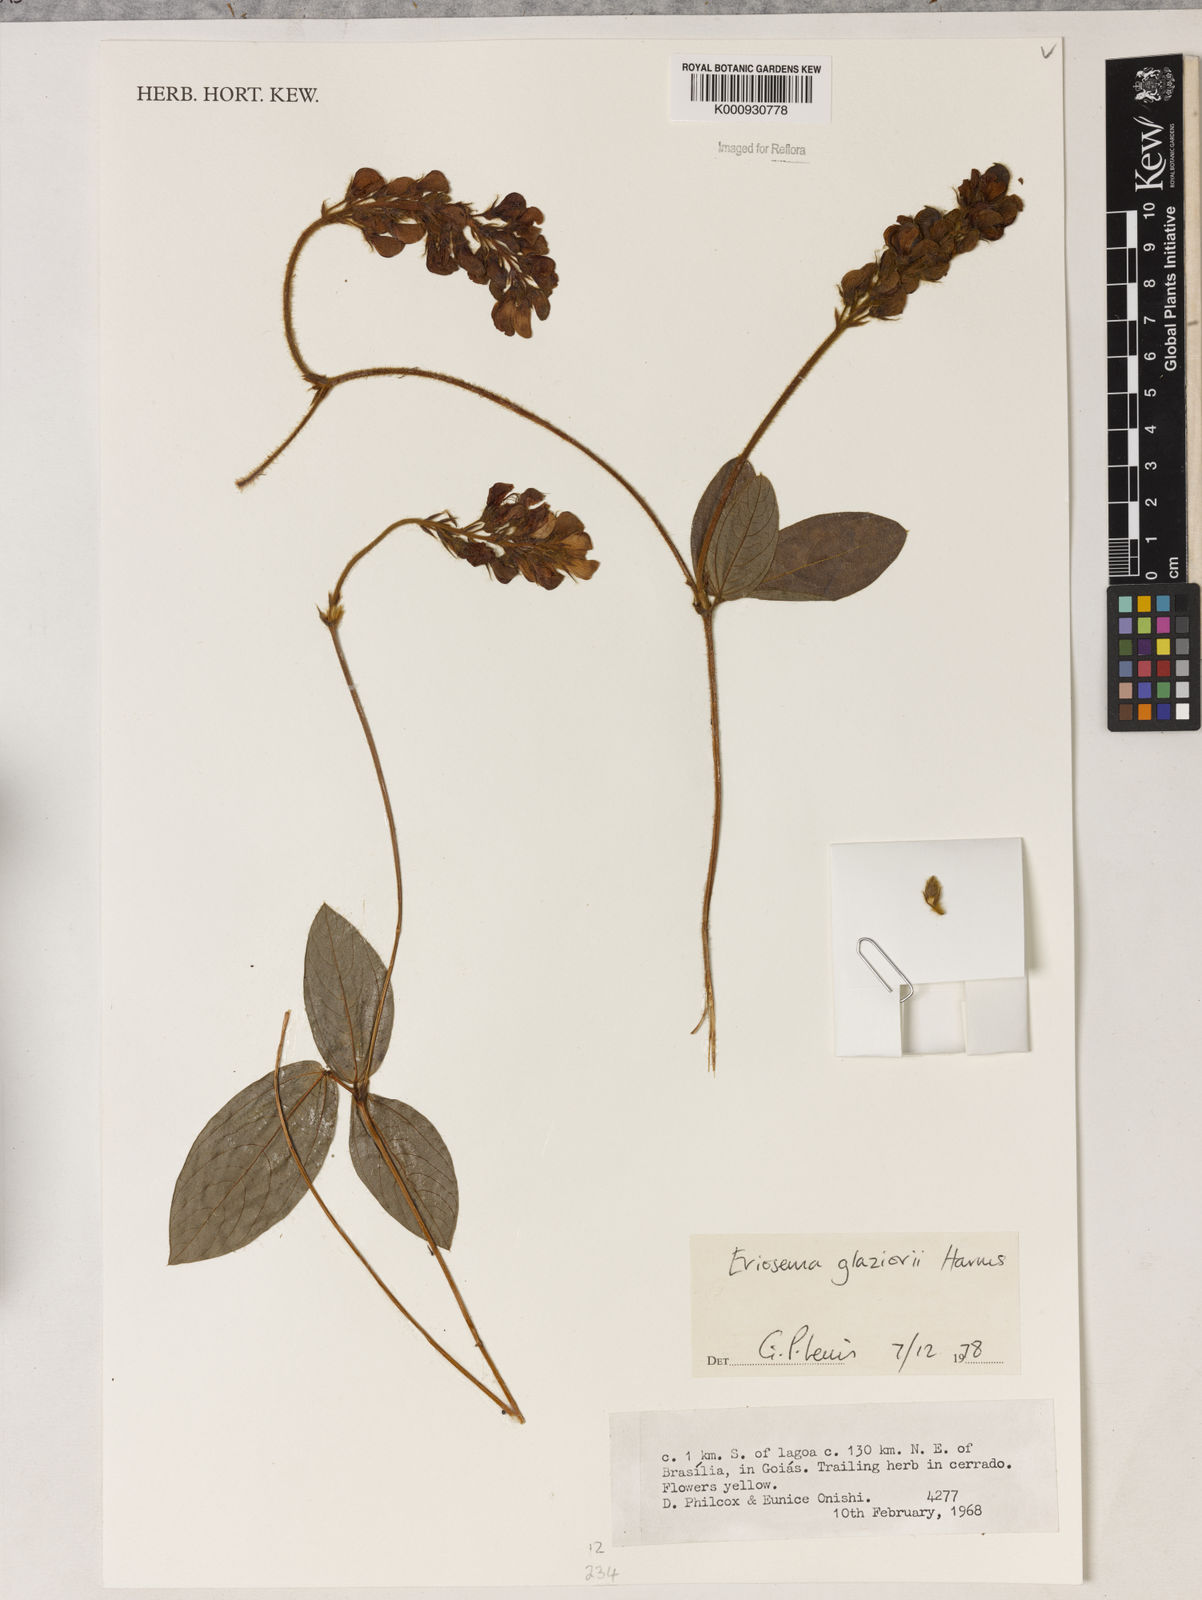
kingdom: Plantae
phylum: Tracheophyta
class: Magnoliopsida
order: Fabales
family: Fabaceae
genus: Eriosema
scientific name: Eriosema glaziovii
